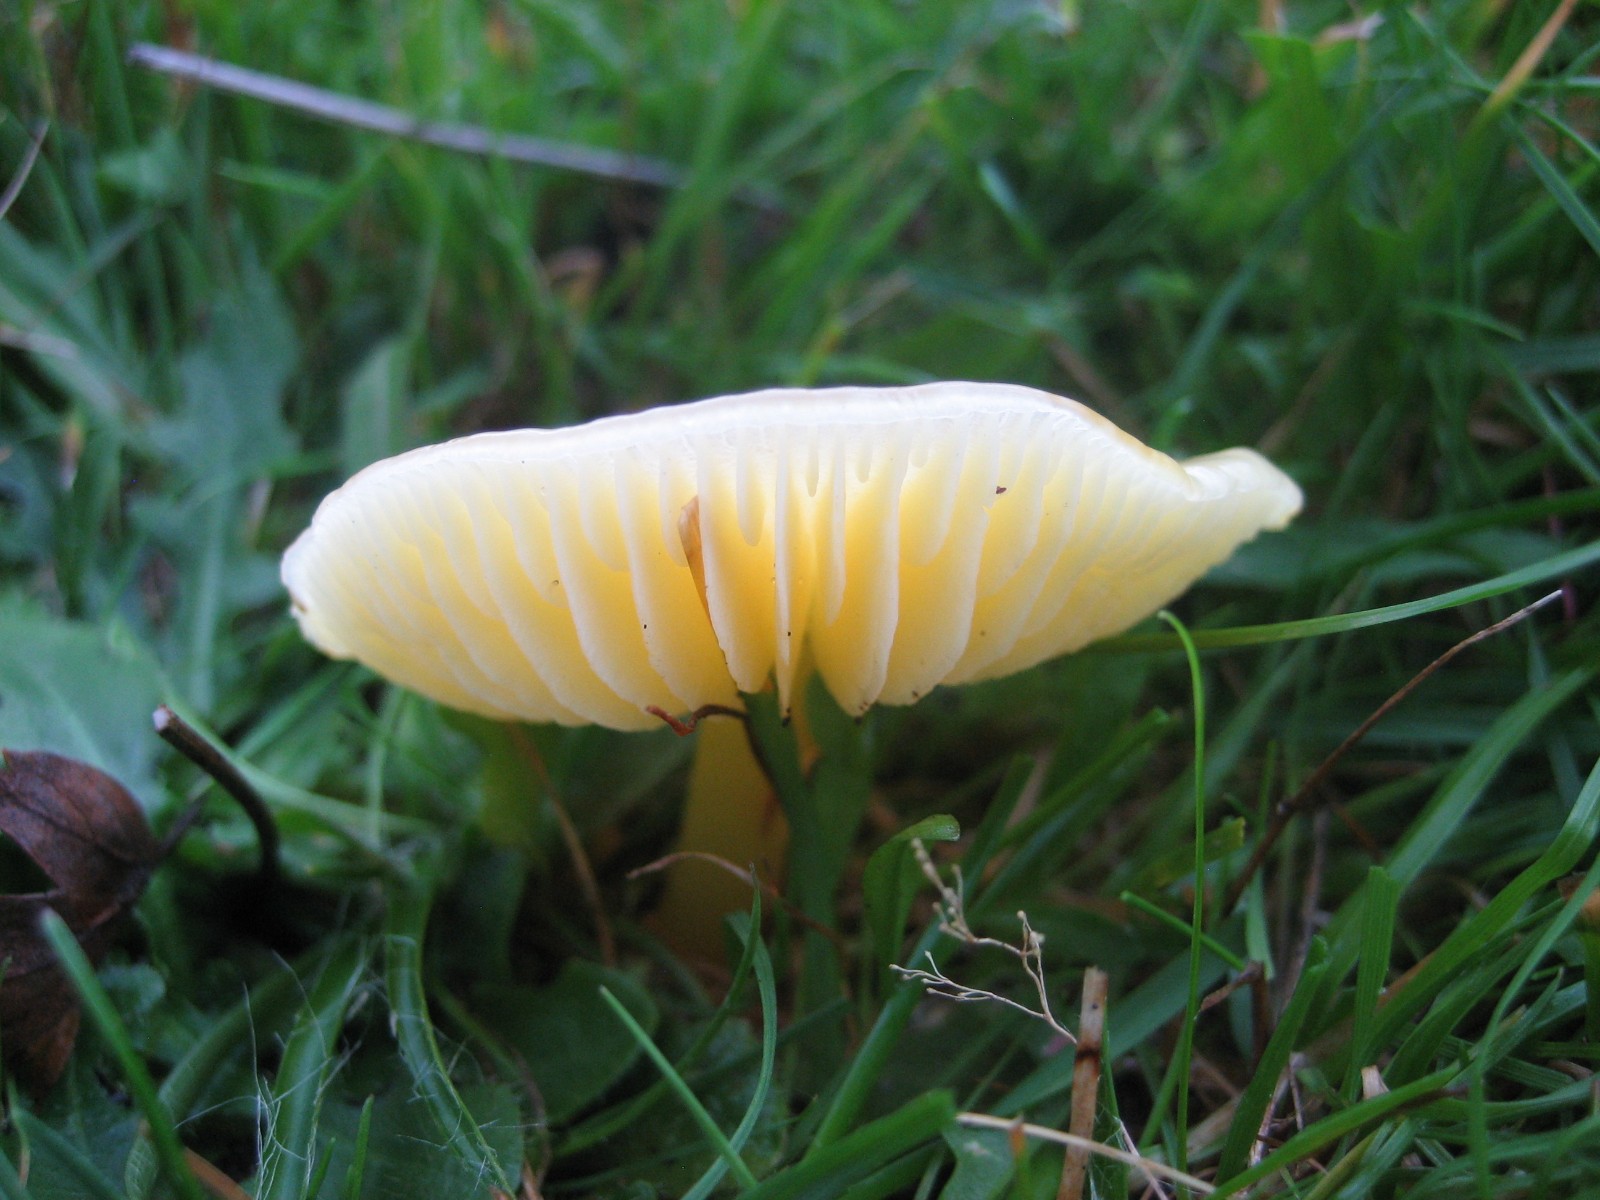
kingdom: Fungi
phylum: Basidiomycota
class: Agaricomycetes
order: Agaricales
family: Hygrophoraceae
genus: Hygrocybe
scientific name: Hygrocybe chlorophana
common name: gul vokshat
